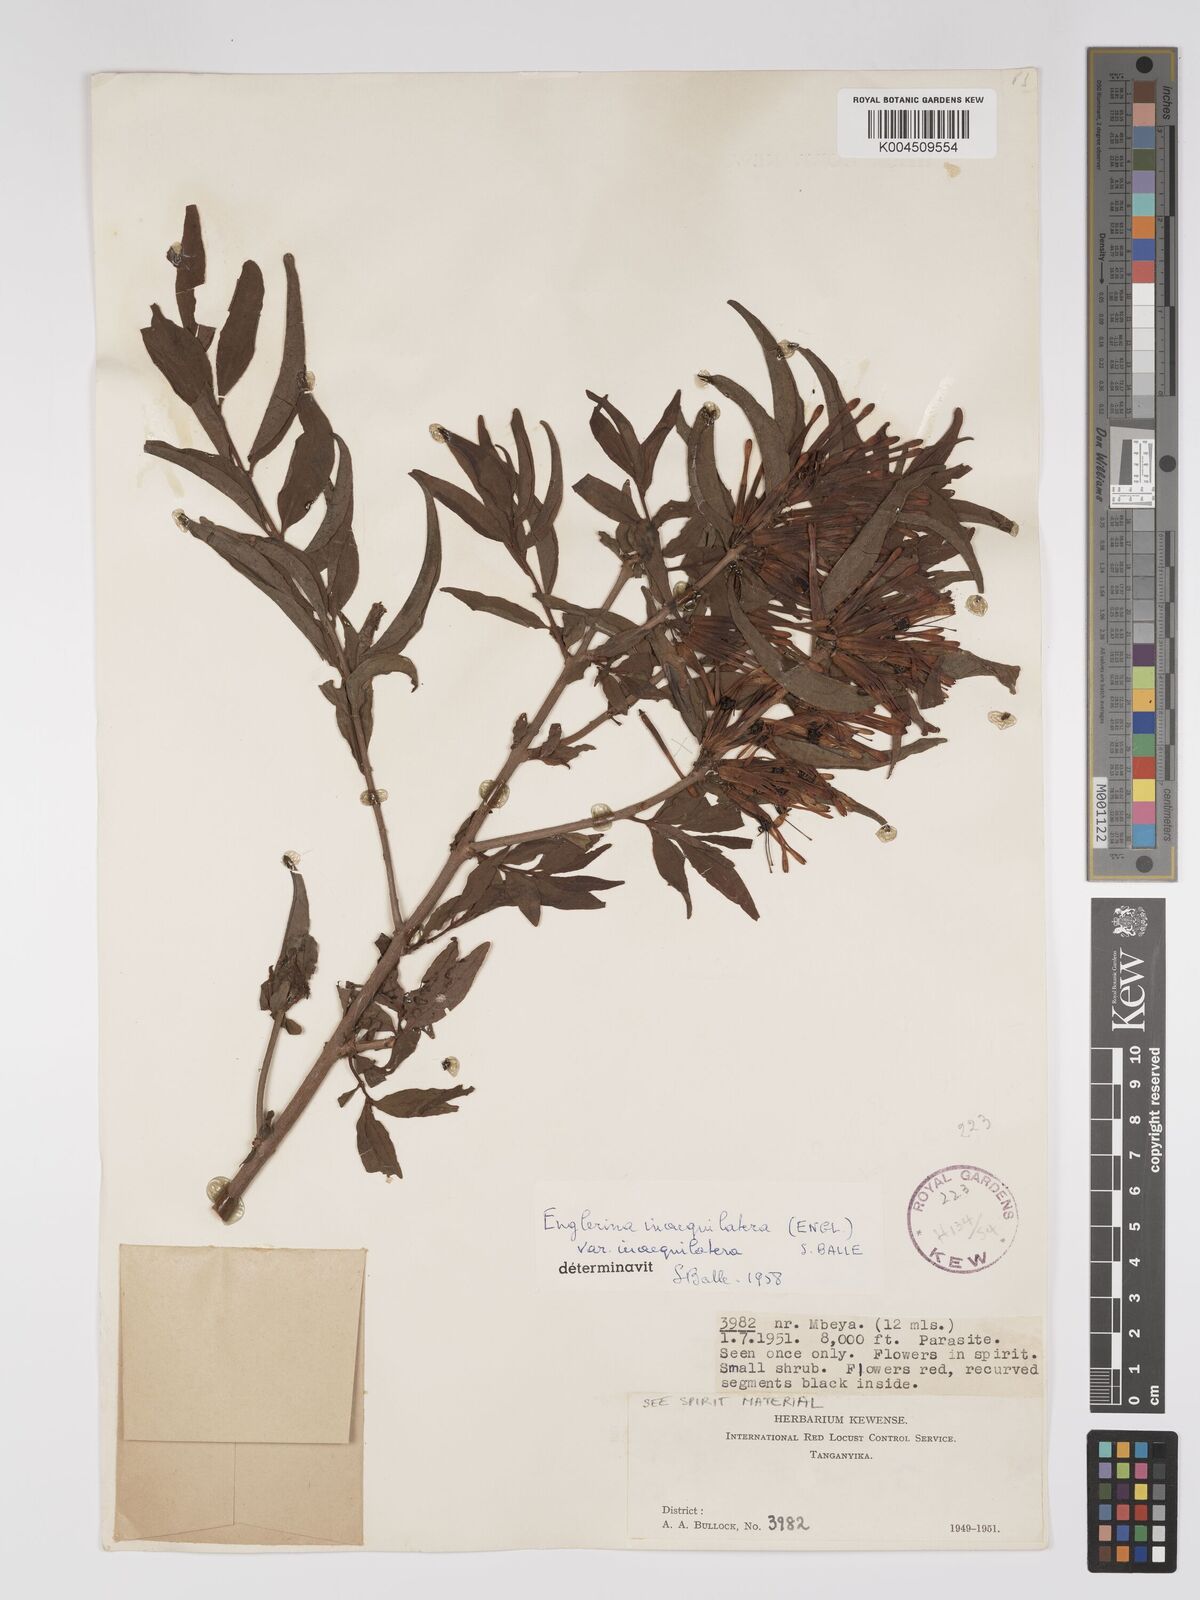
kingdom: Plantae
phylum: Tracheophyta
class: Magnoliopsida
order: Santalales
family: Loranthaceae
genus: Englerina
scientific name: Englerina inaequilatera
